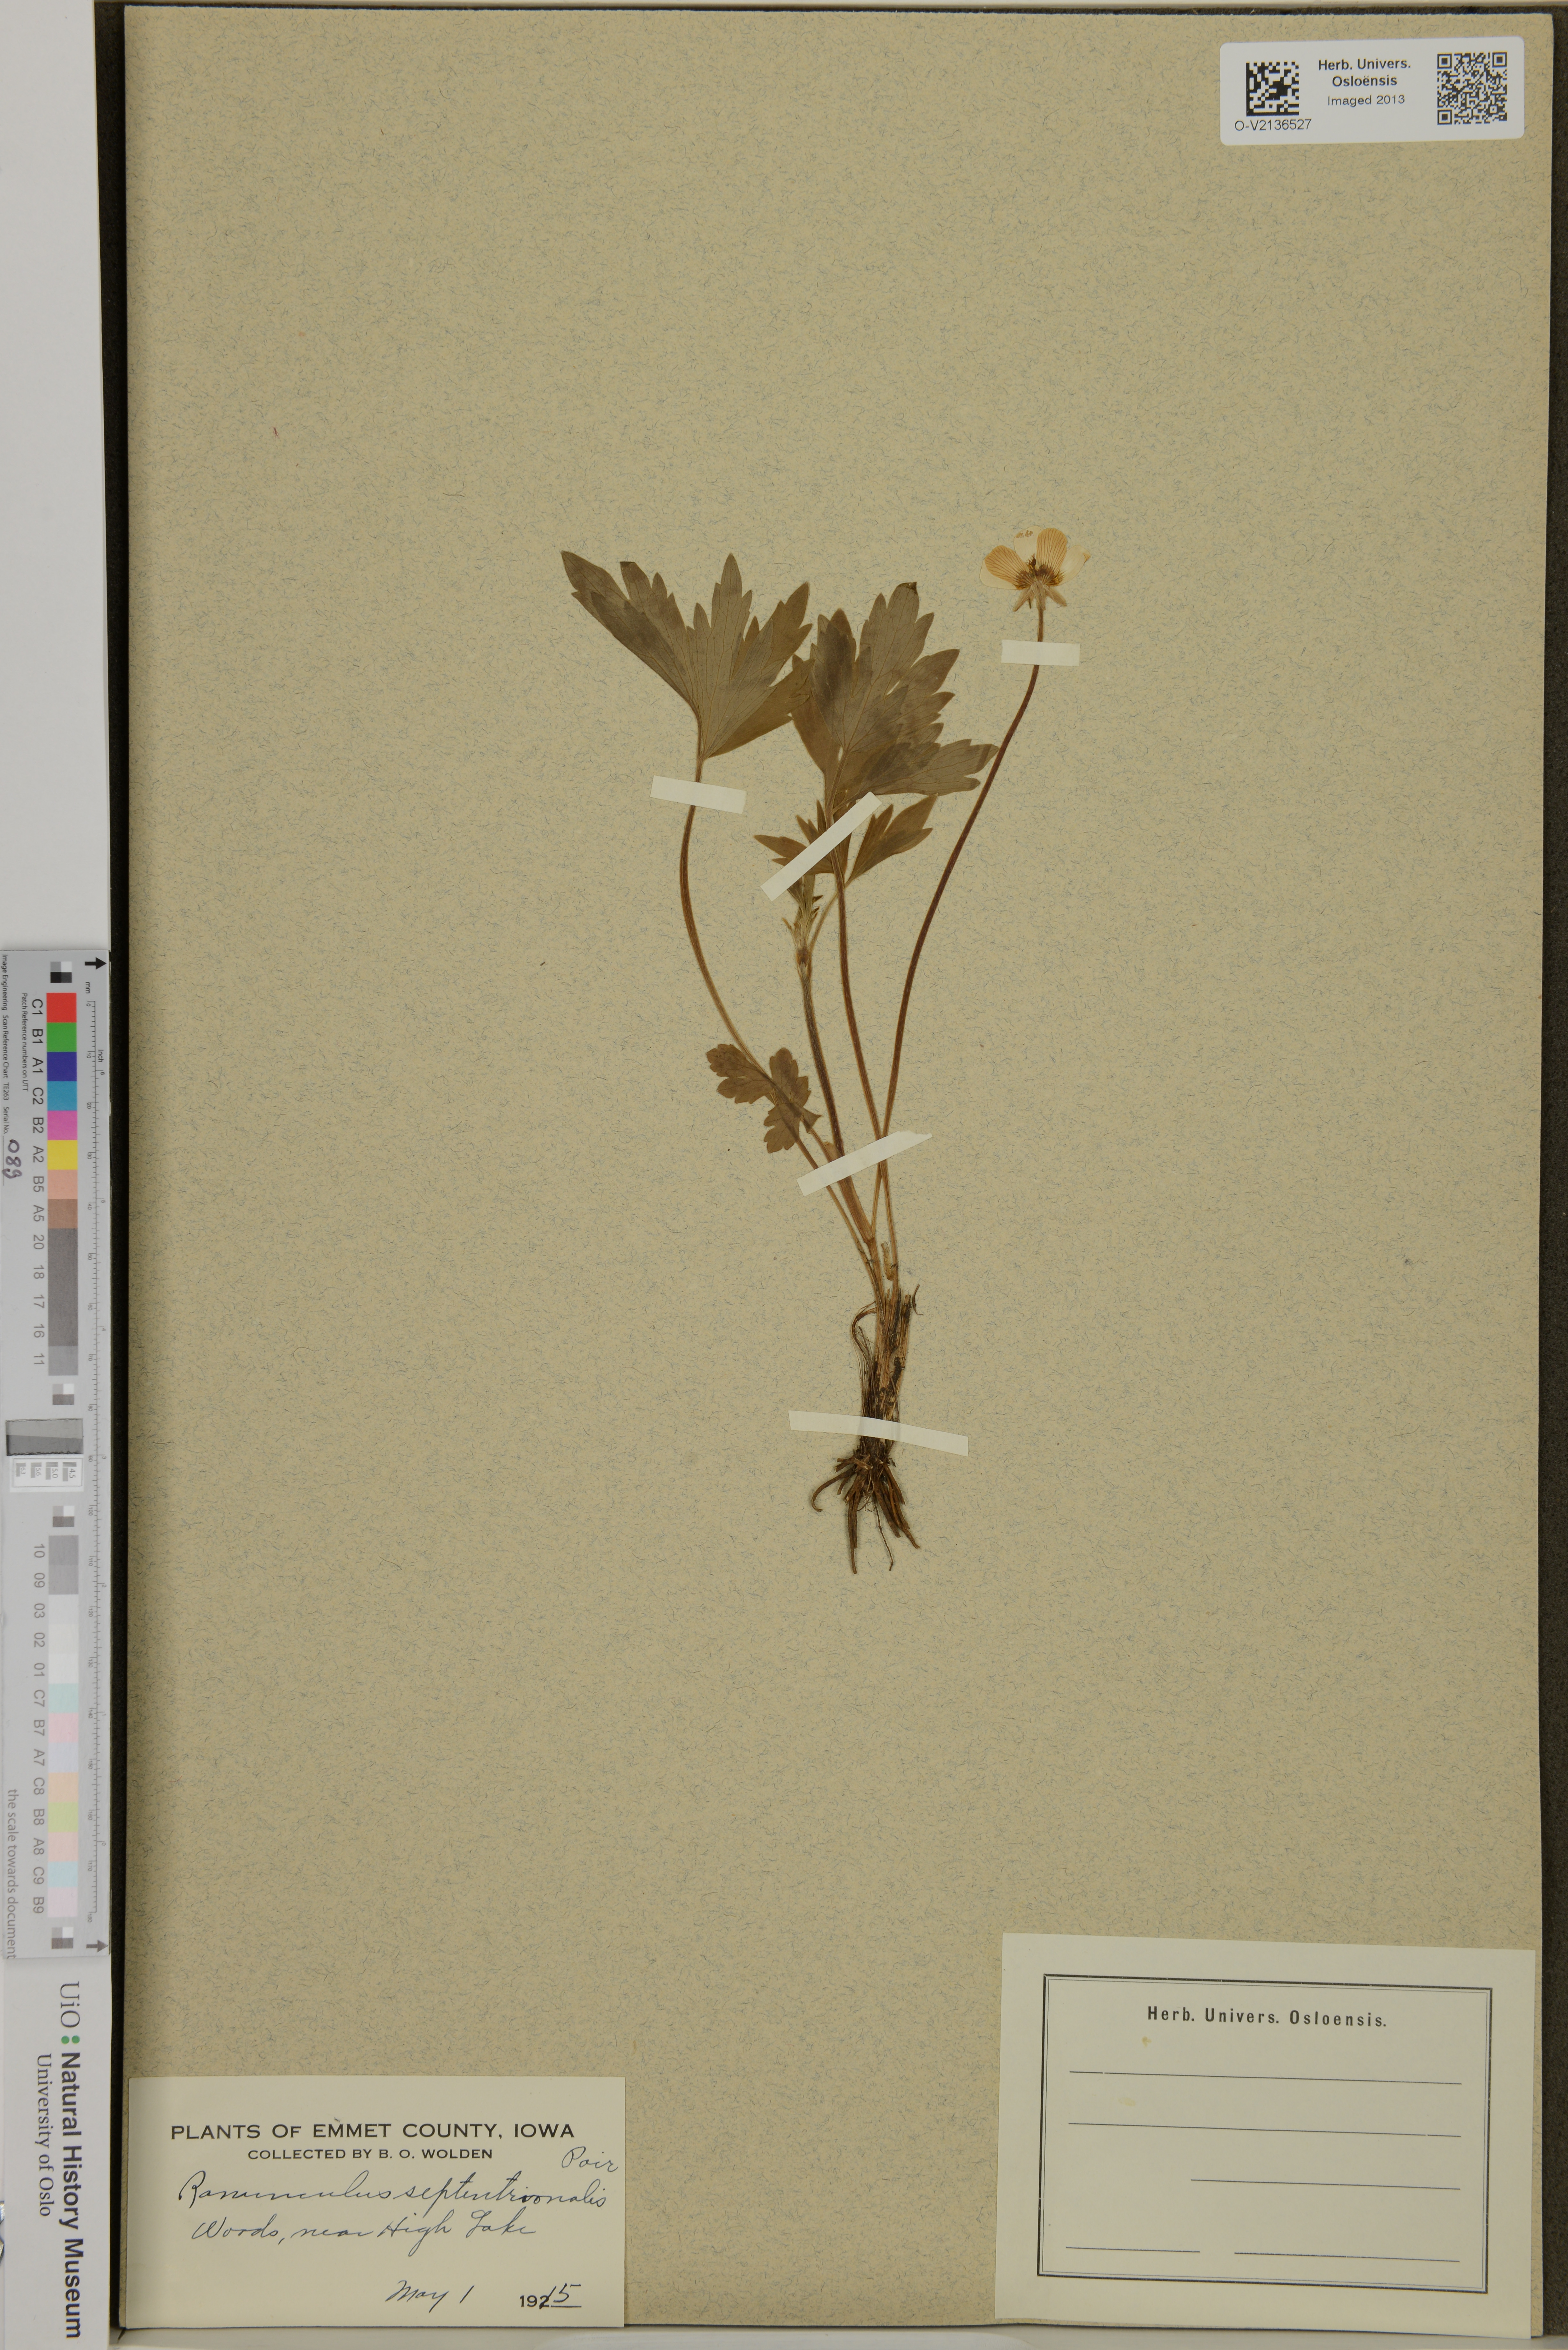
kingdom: Plantae
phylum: Tracheophyta
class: Magnoliopsida
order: Ranunculales
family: Ranunculaceae
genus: Ranunculus
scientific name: Ranunculus
